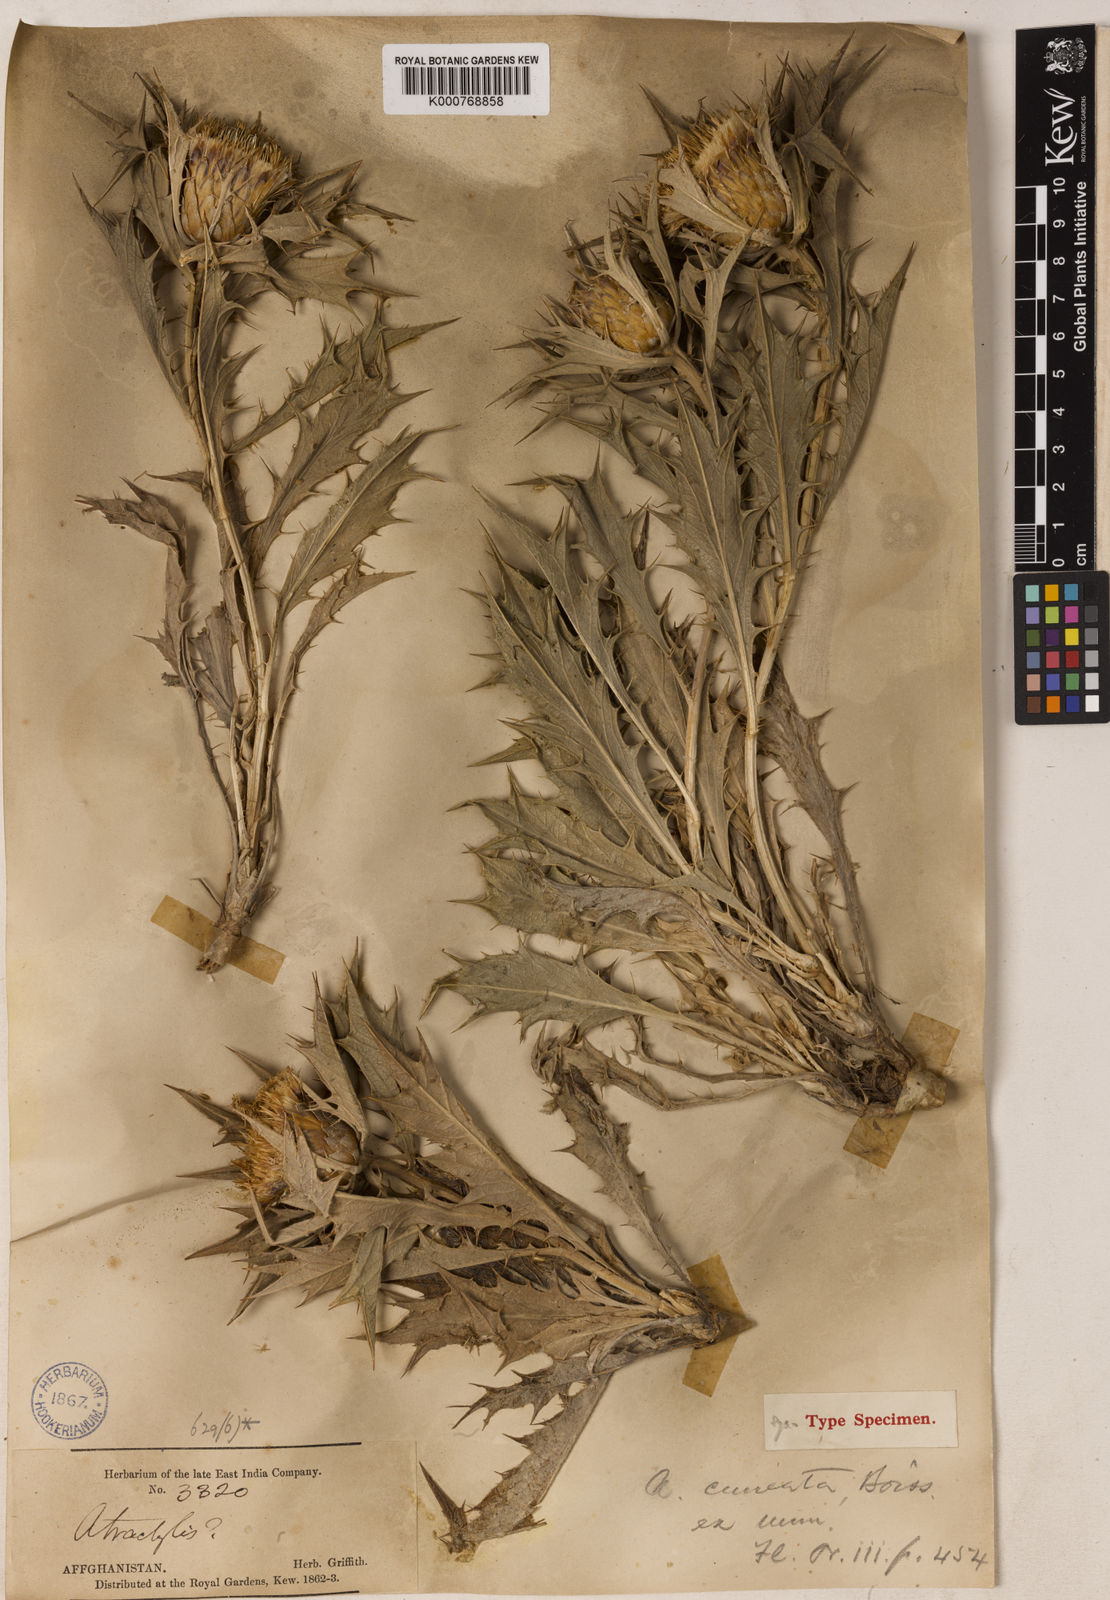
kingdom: Plantae
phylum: Tracheophyta
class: Magnoliopsida
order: Asterales
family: Asteraceae
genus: Chamaeleon
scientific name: Chamaeleon cuneatus
